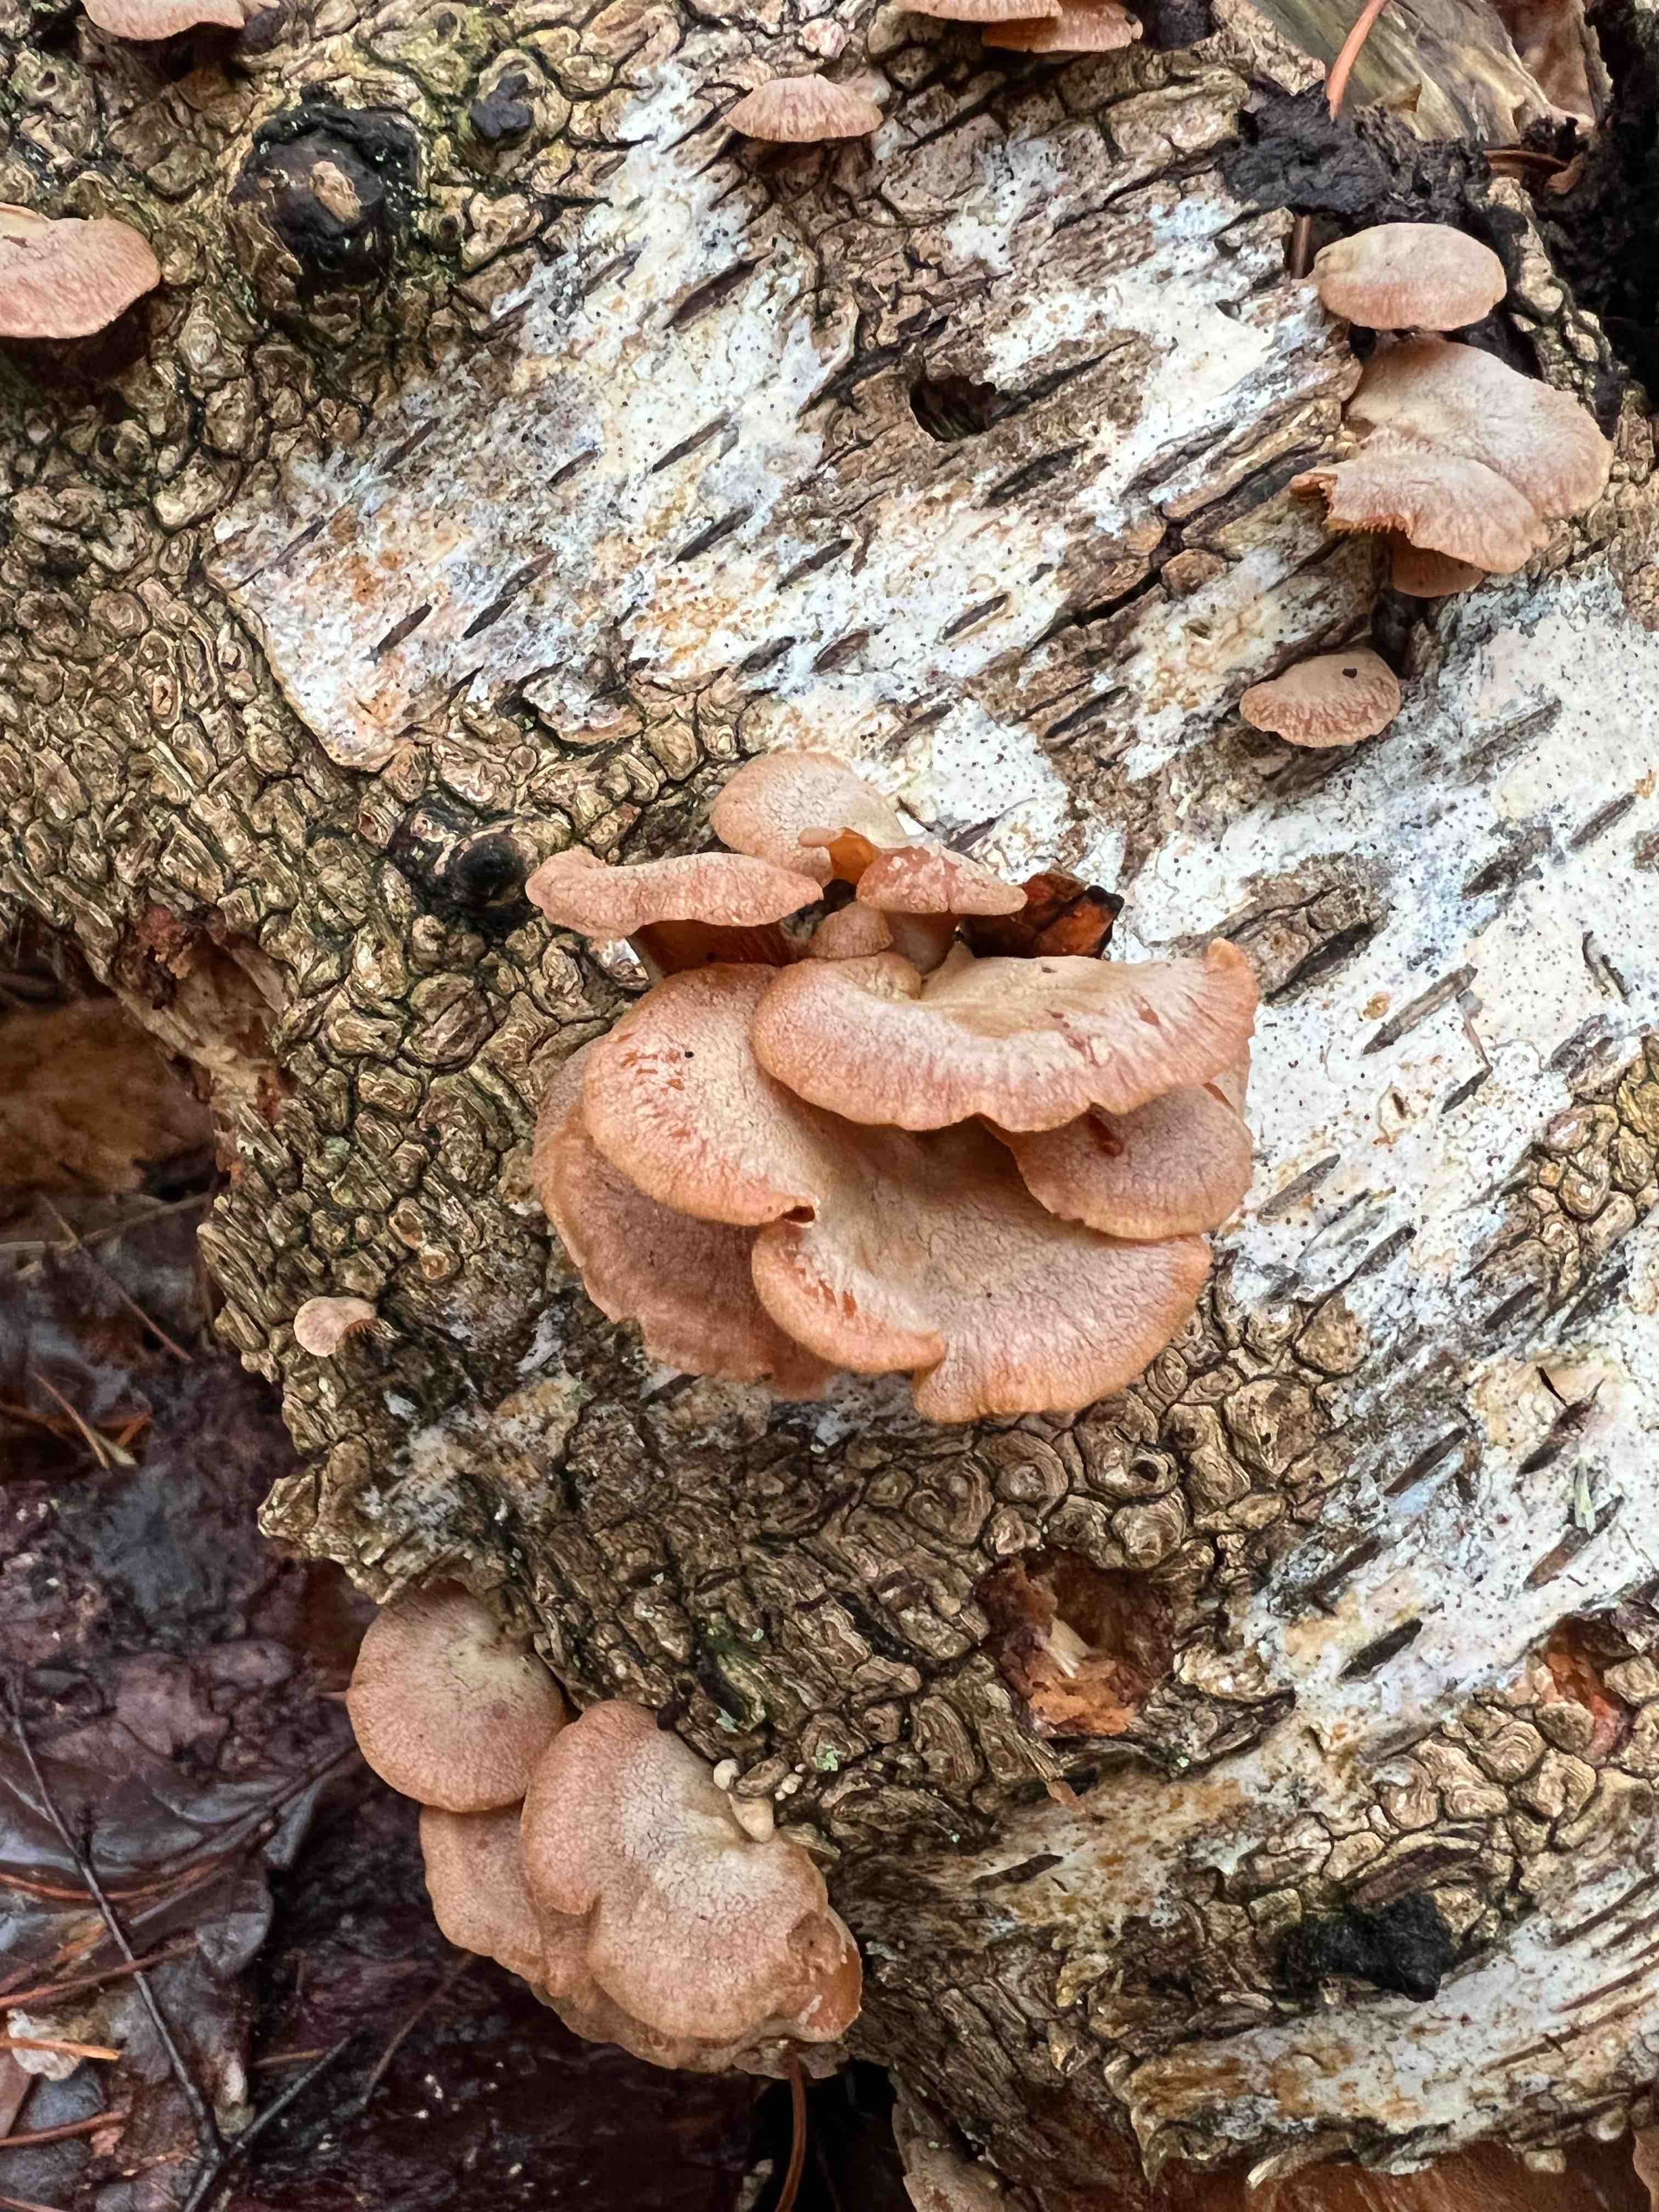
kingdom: Fungi
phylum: Basidiomycota
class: Agaricomycetes
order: Agaricales
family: Mycenaceae
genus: Panellus
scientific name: Panellus stipticus
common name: kliddet epaulethat
